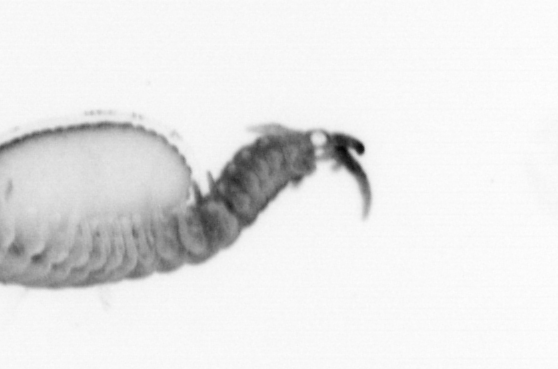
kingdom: Animalia
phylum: Annelida
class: Polychaeta
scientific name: Polychaeta
